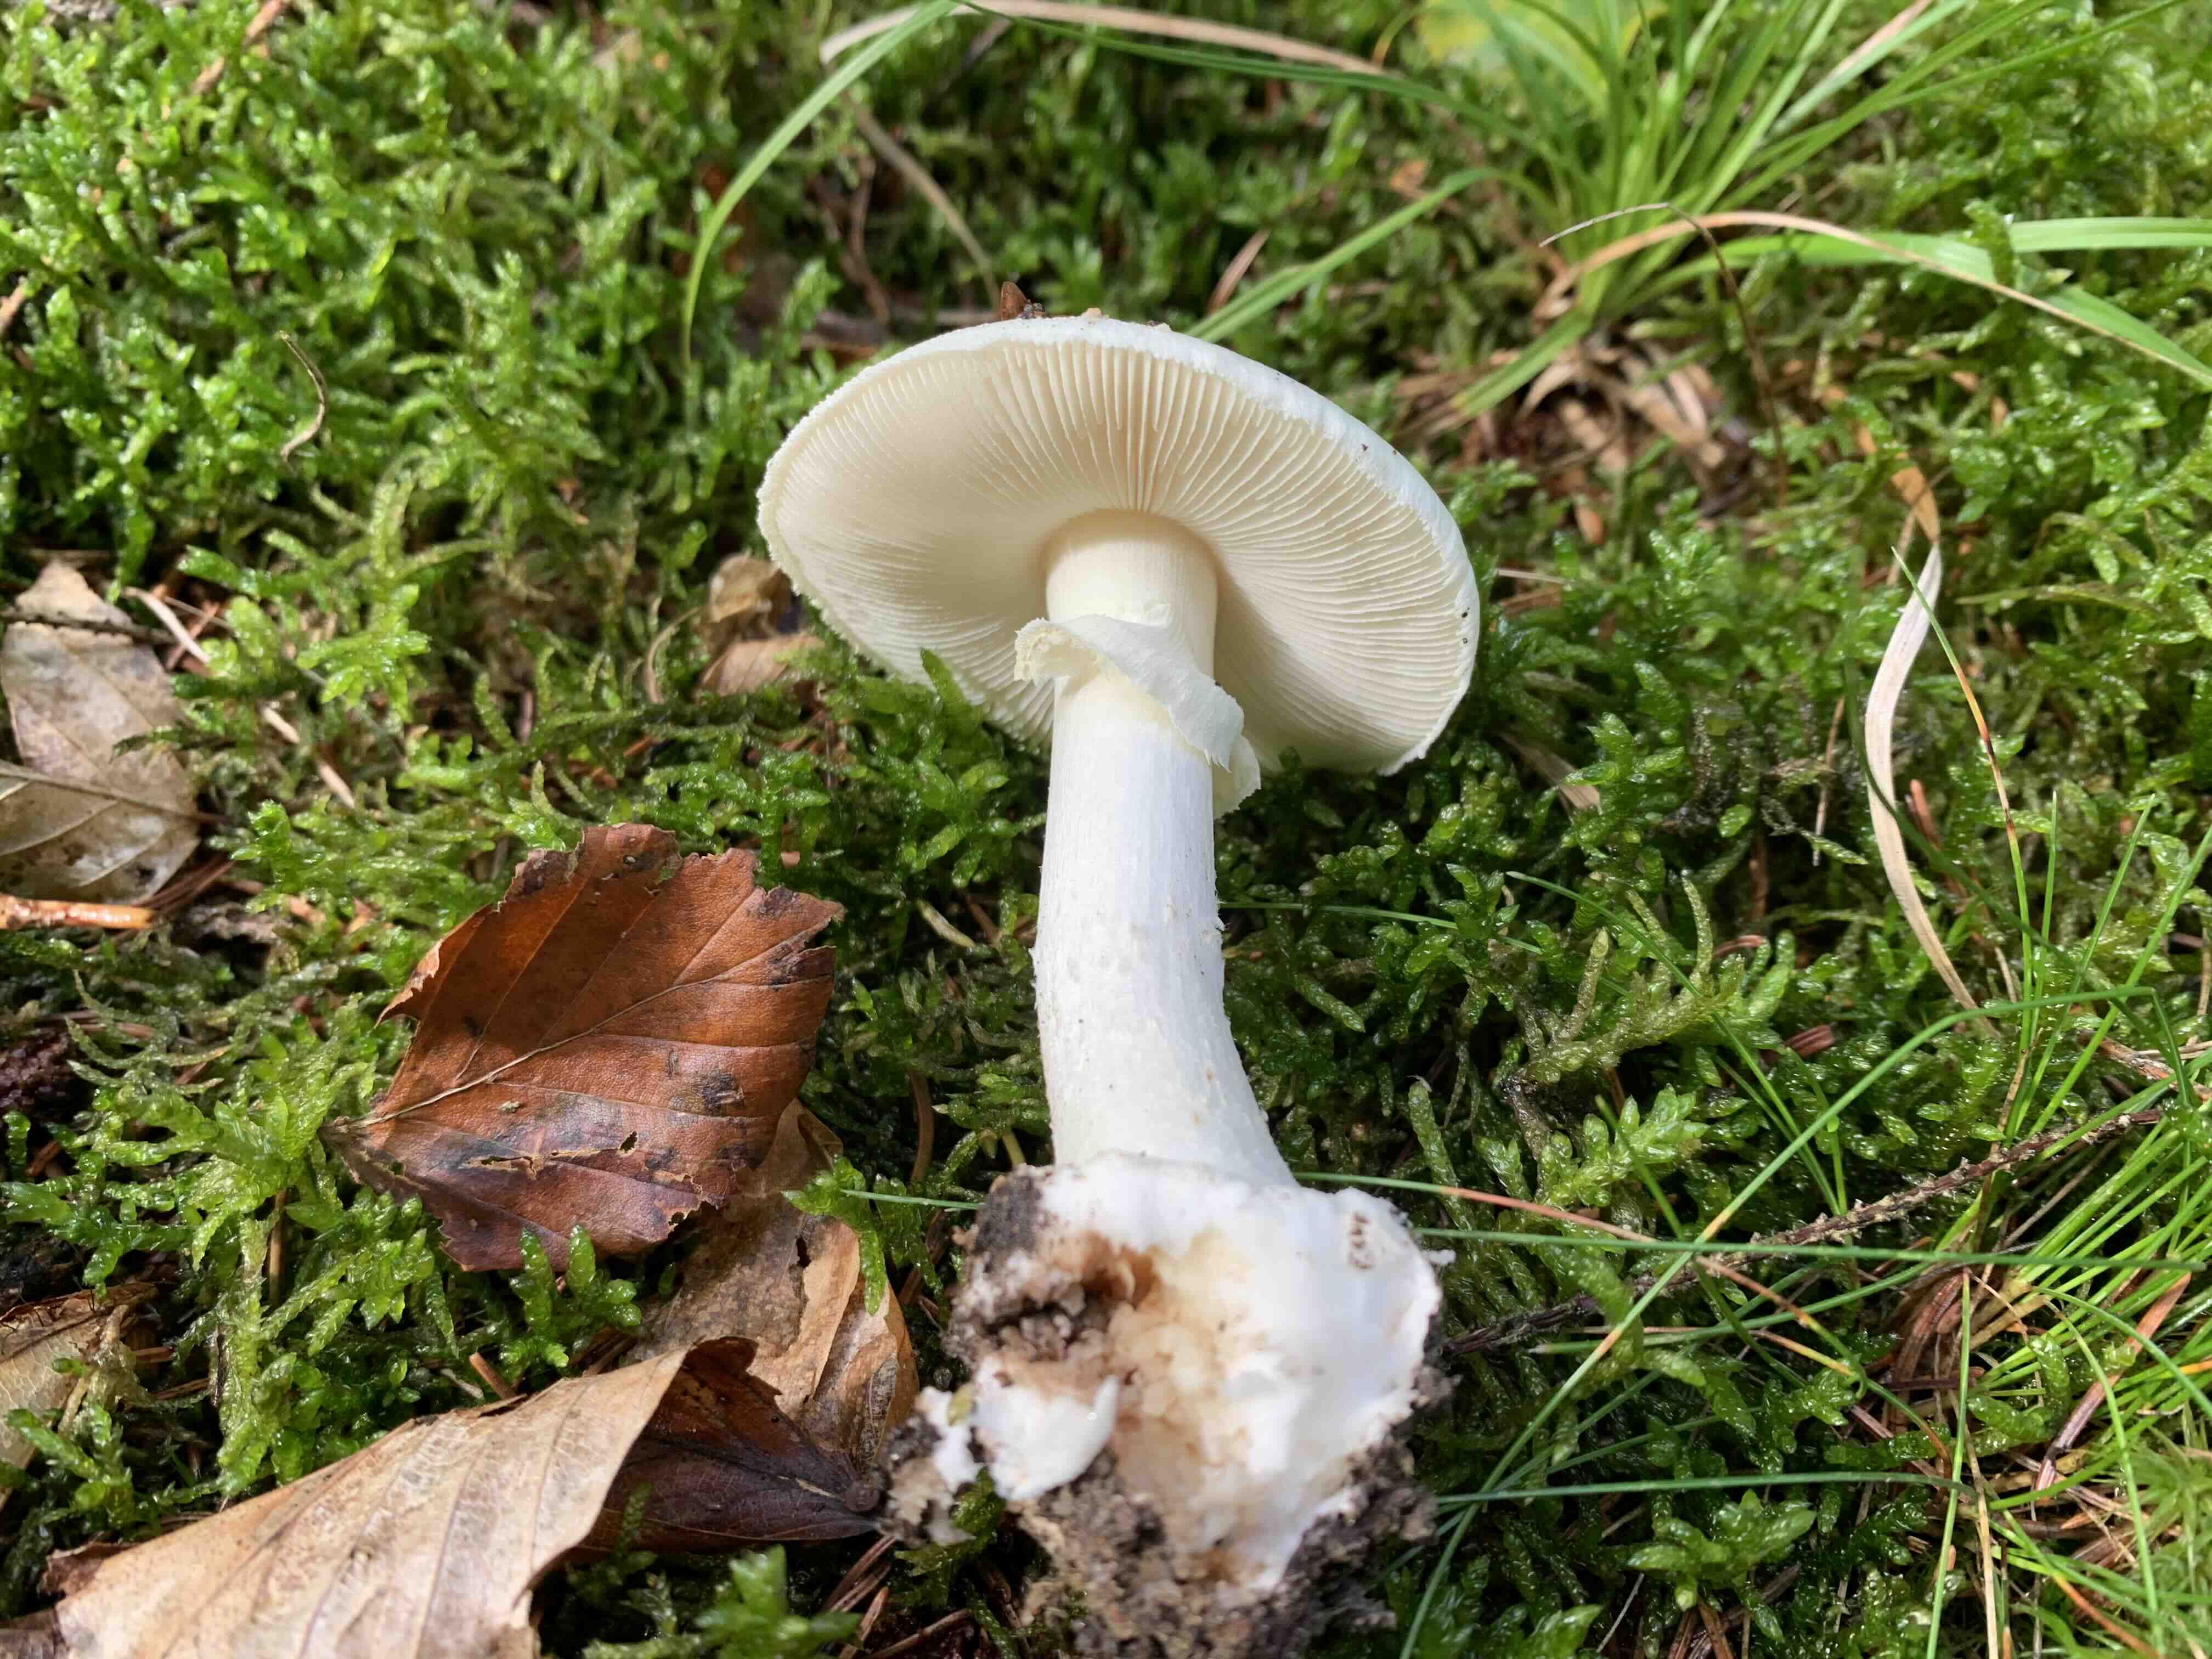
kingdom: Fungi
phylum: Basidiomycota
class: Agaricomycetes
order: Agaricales
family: Amanitaceae
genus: Amanita
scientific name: Amanita citrina
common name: kugleknoldet fluesvamp
